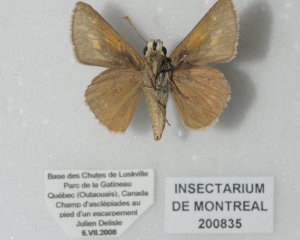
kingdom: Animalia
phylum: Arthropoda
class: Insecta
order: Lepidoptera
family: Hesperiidae
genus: Polites
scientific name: Polites
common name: Crossline Skipper
